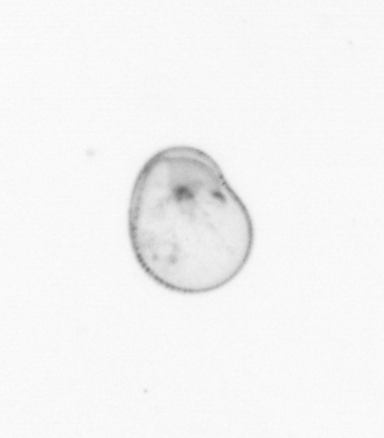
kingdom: Chromista
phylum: Myzozoa
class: Dinophyceae
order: Noctilucales
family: Noctilucaceae
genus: Noctiluca
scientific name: Noctiluca scintillans
